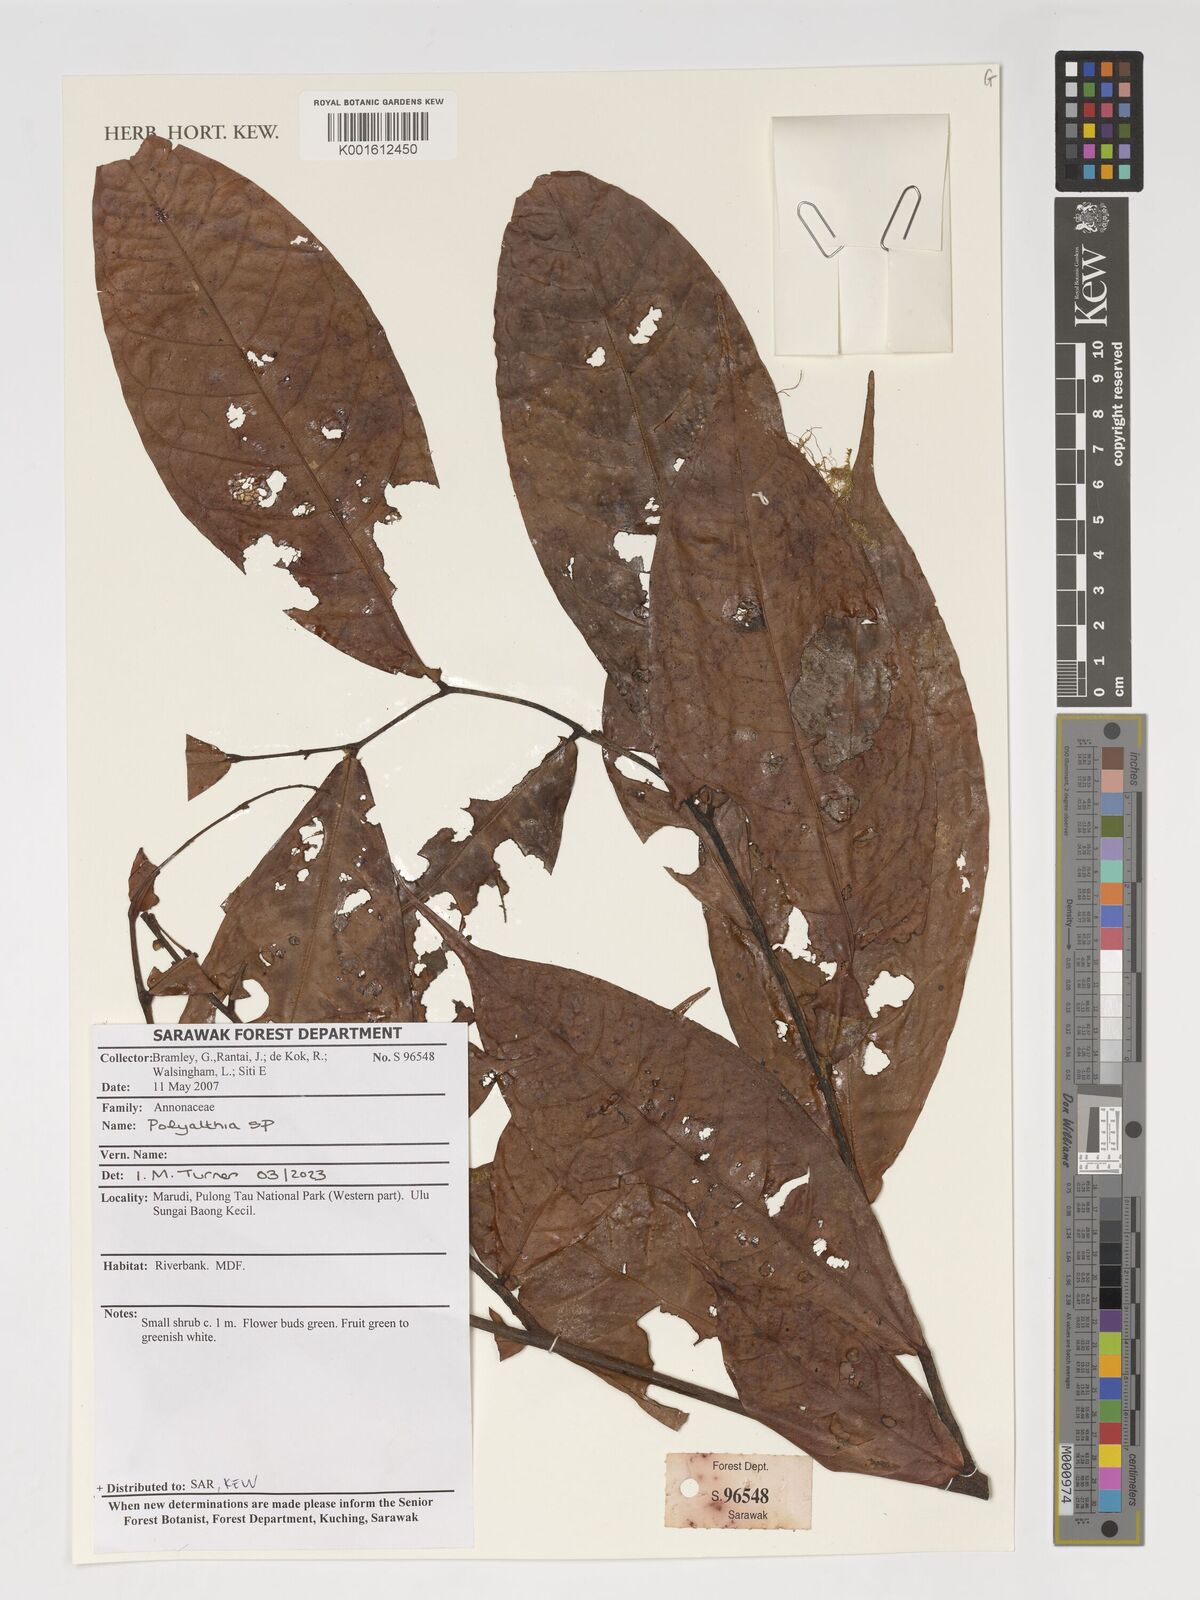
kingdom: Plantae
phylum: Tracheophyta
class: Magnoliopsida
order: Magnoliales
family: Annonaceae
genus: Polyalthia
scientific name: Polyalthia
